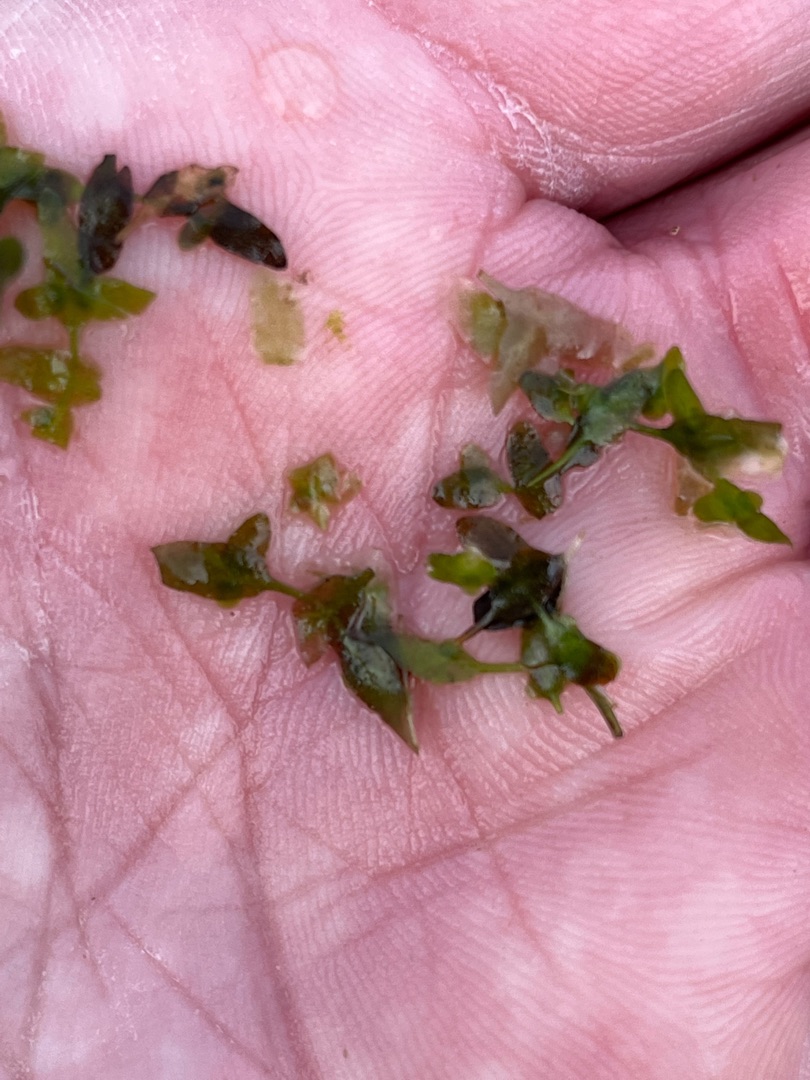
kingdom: Plantae
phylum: Tracheophyta
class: Liliopsida
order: Alismatales
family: Araceae
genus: Lemna
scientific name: Lemna trisulca
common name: Kors-andemad
